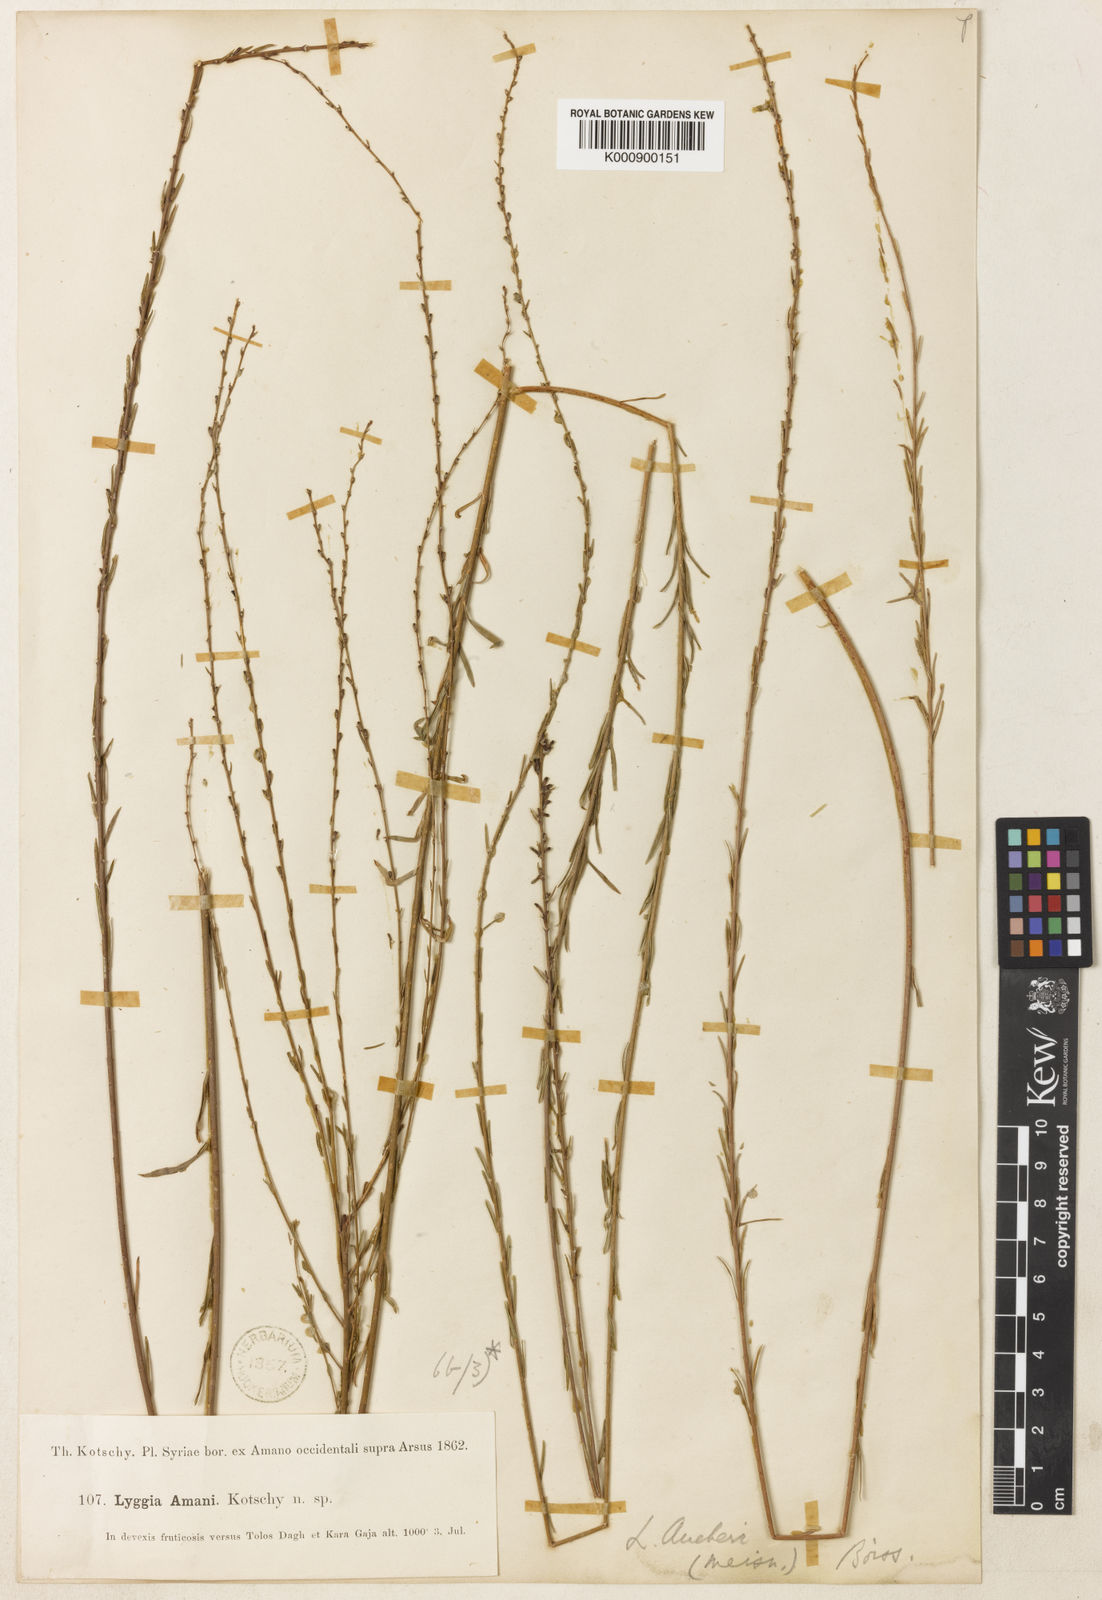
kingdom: Plantae
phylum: Tracheophyta
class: Magnoliopsida
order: Malvales
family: Thymelaeaceae
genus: Wikstroemia
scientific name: Wikstroemia
